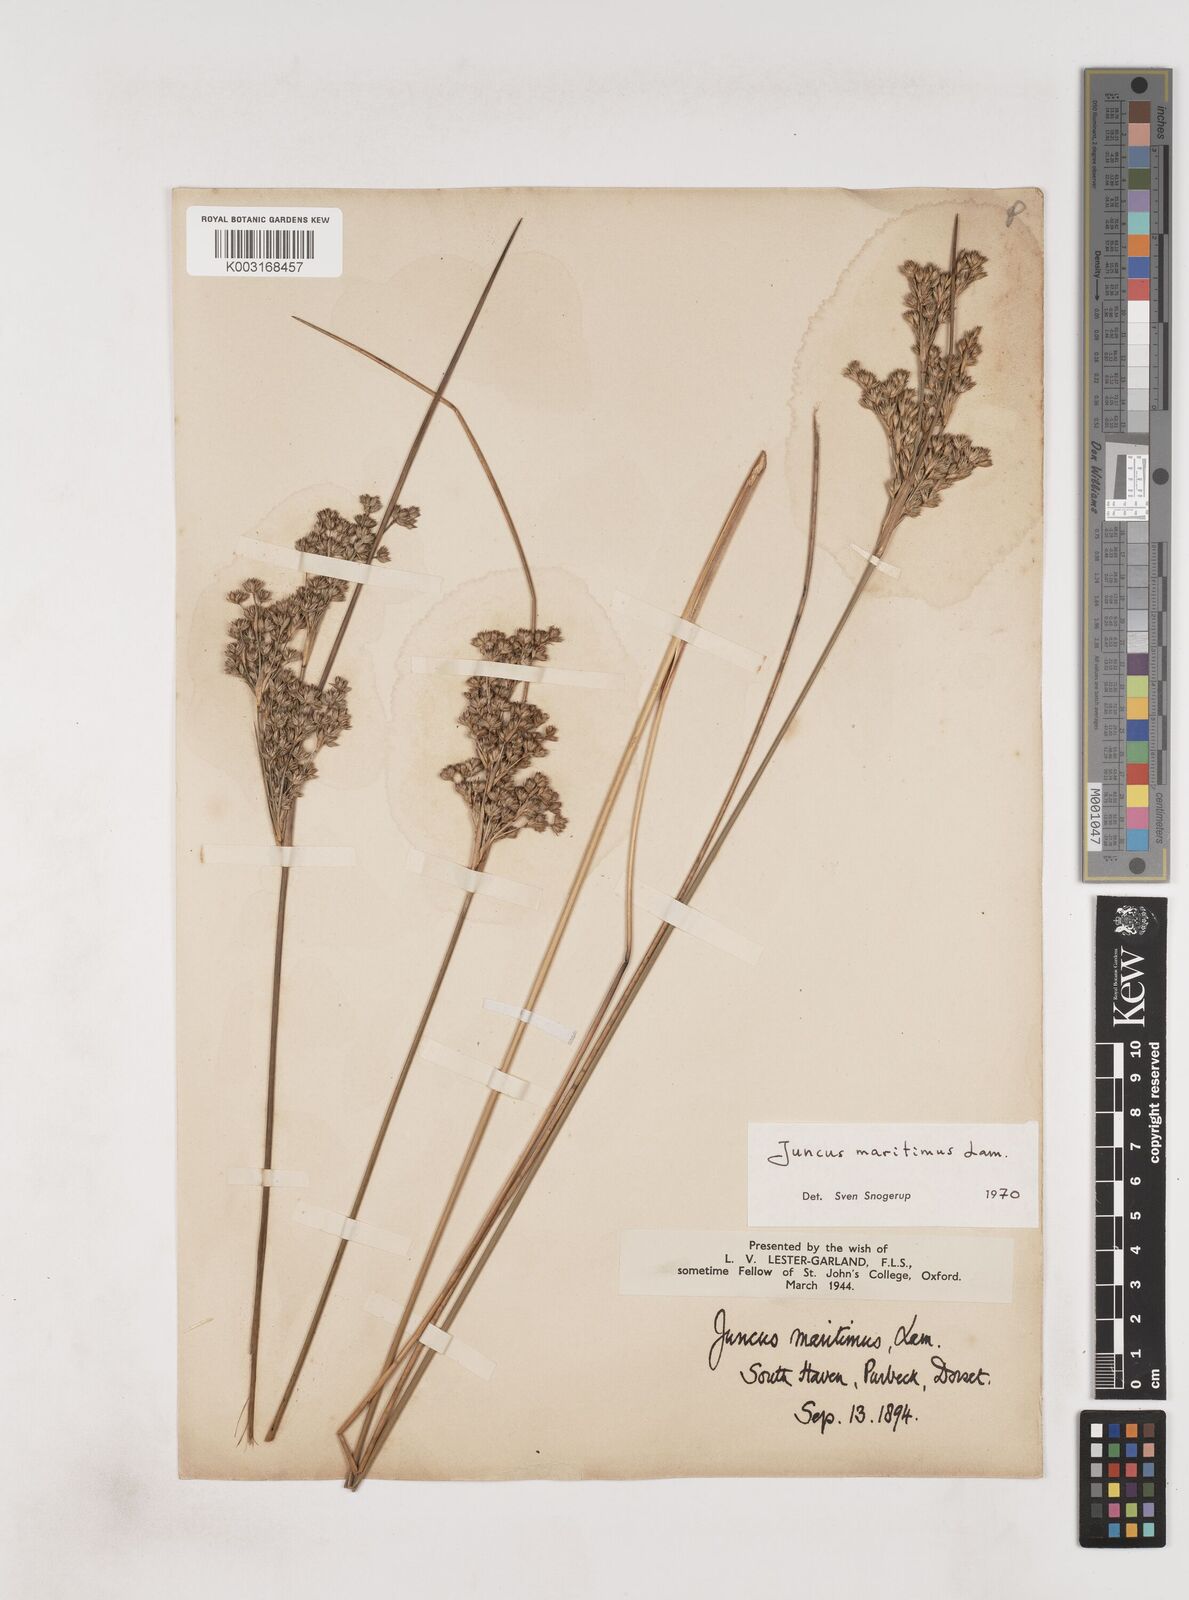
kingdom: Plantae
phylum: Tracheophyta
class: Liliopsida
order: Poales
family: Juncaceae
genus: Juncus
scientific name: Juncus maritimus
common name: Sea rush
